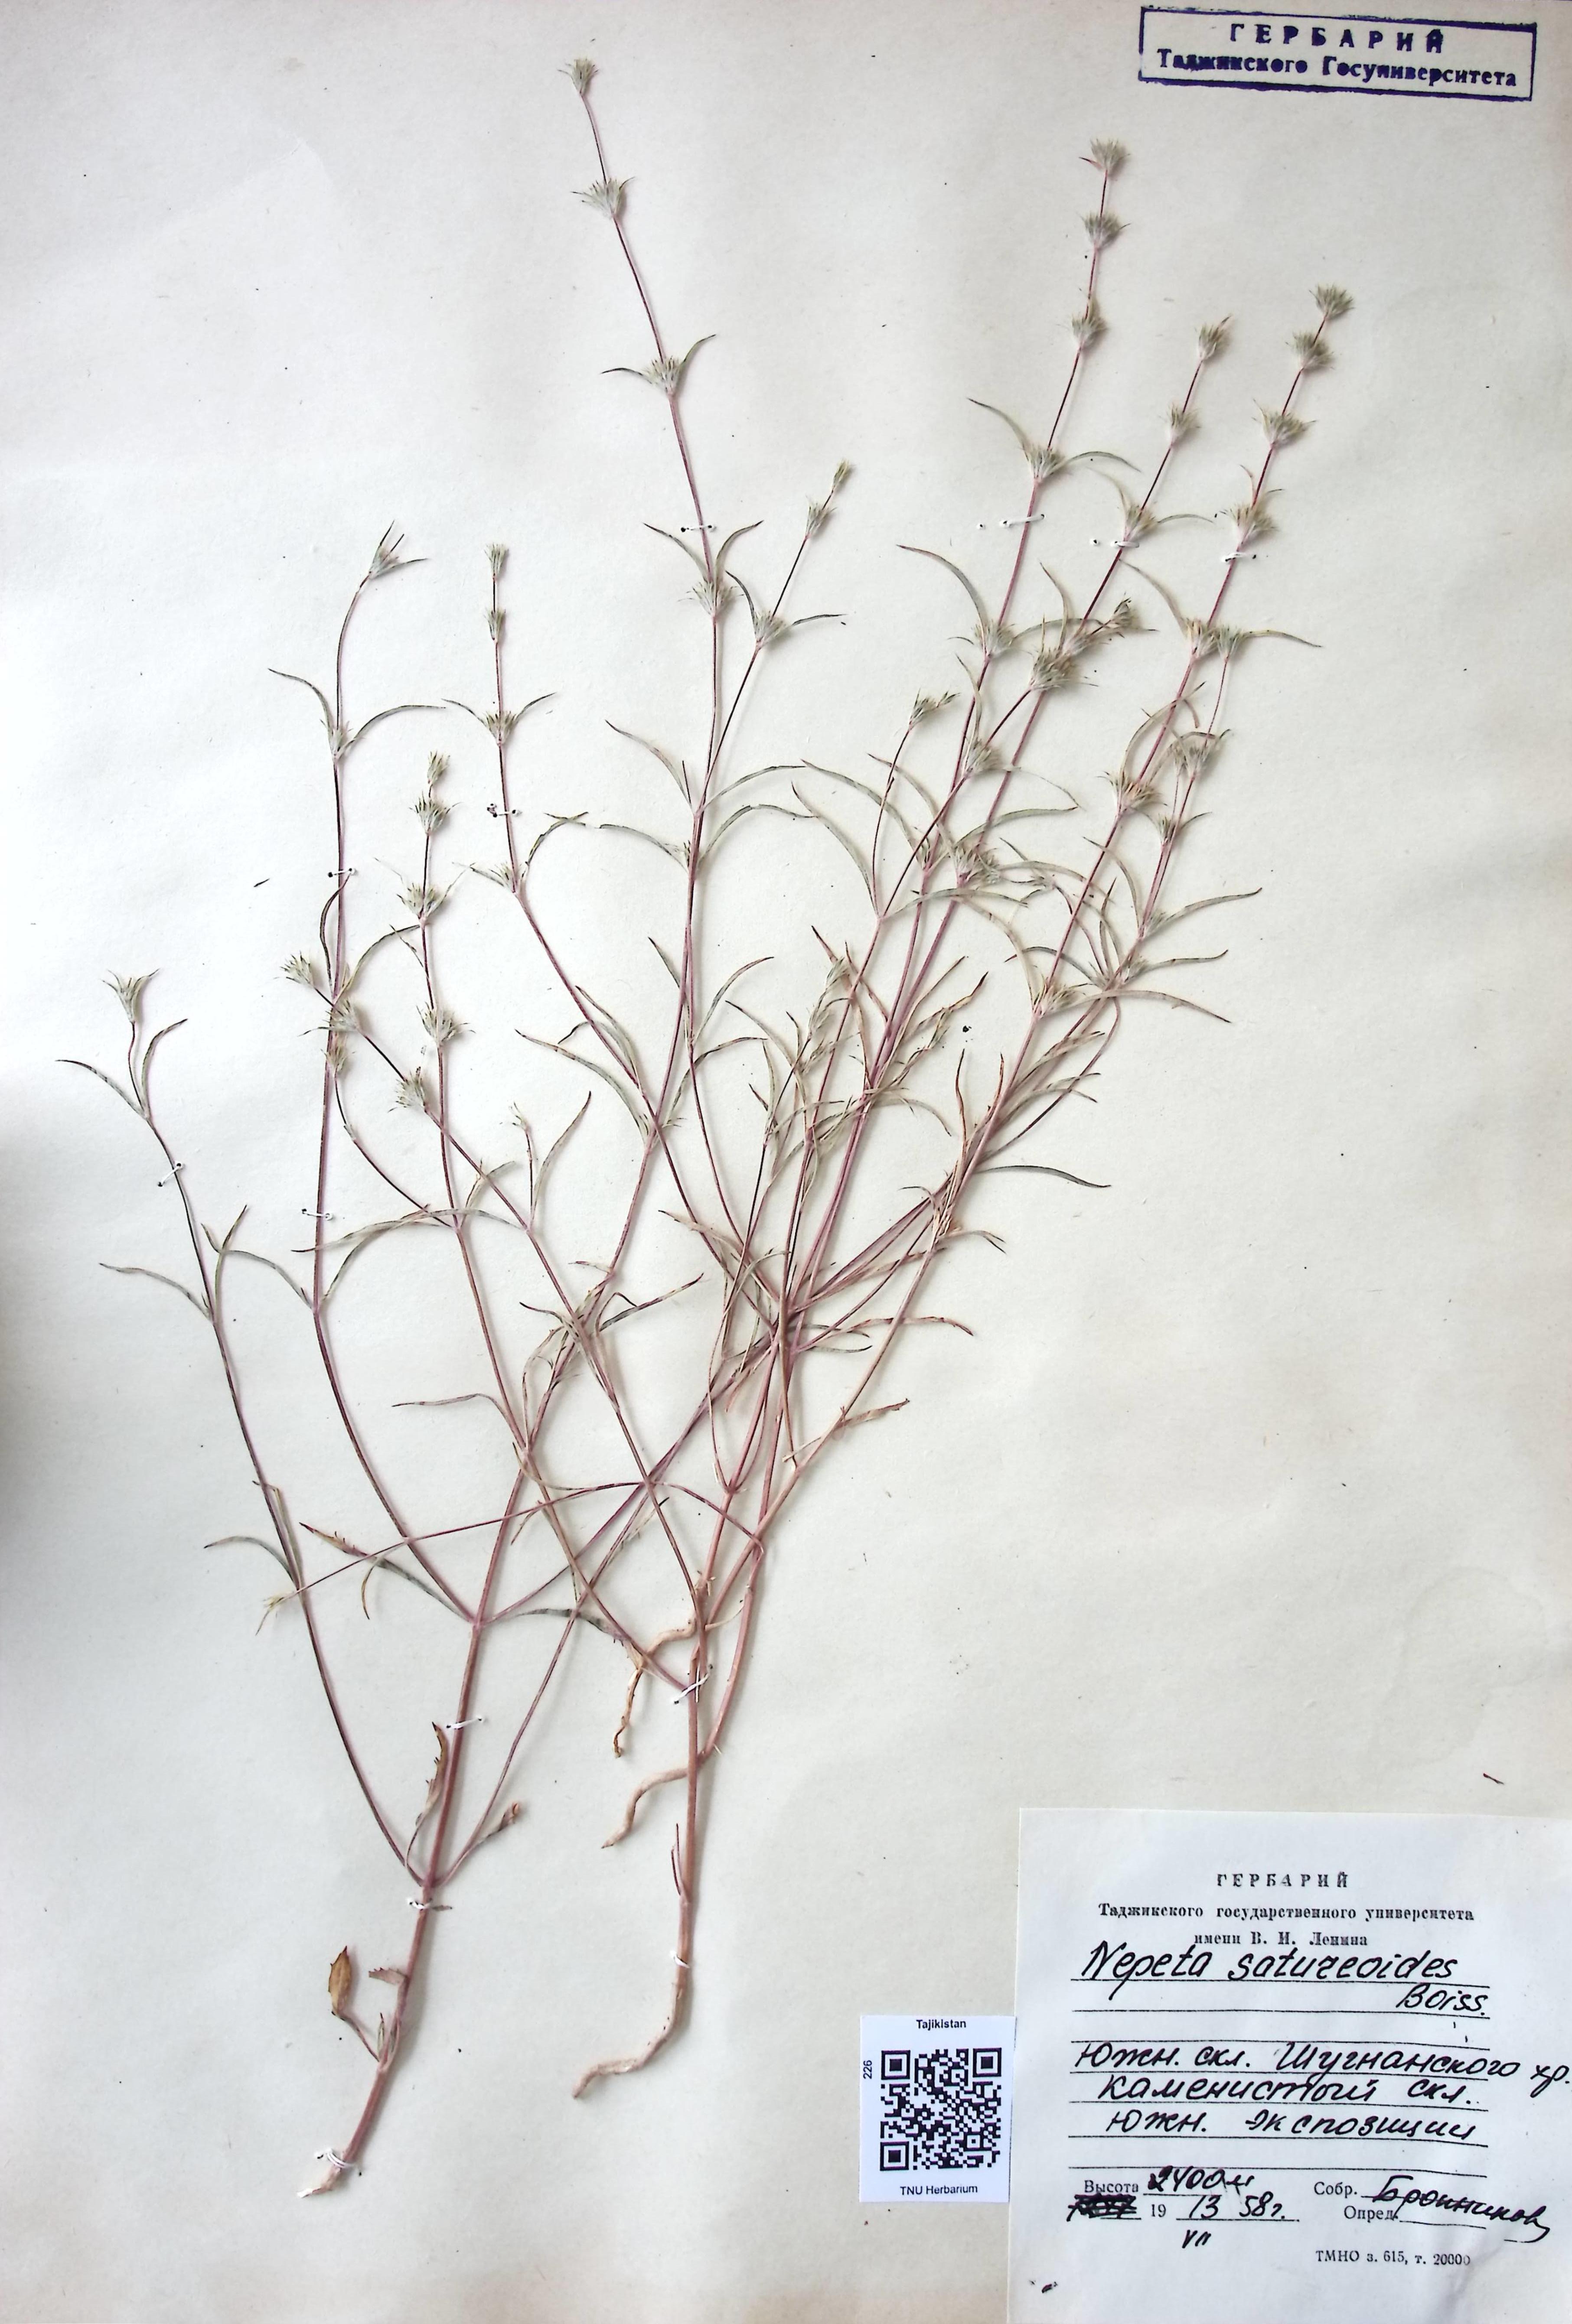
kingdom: Plantae
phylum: Tracheophyta
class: Magnoliopsida
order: Lamiales
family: Lamiaceae
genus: Nepeta
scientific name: Nepeta saturejoides
